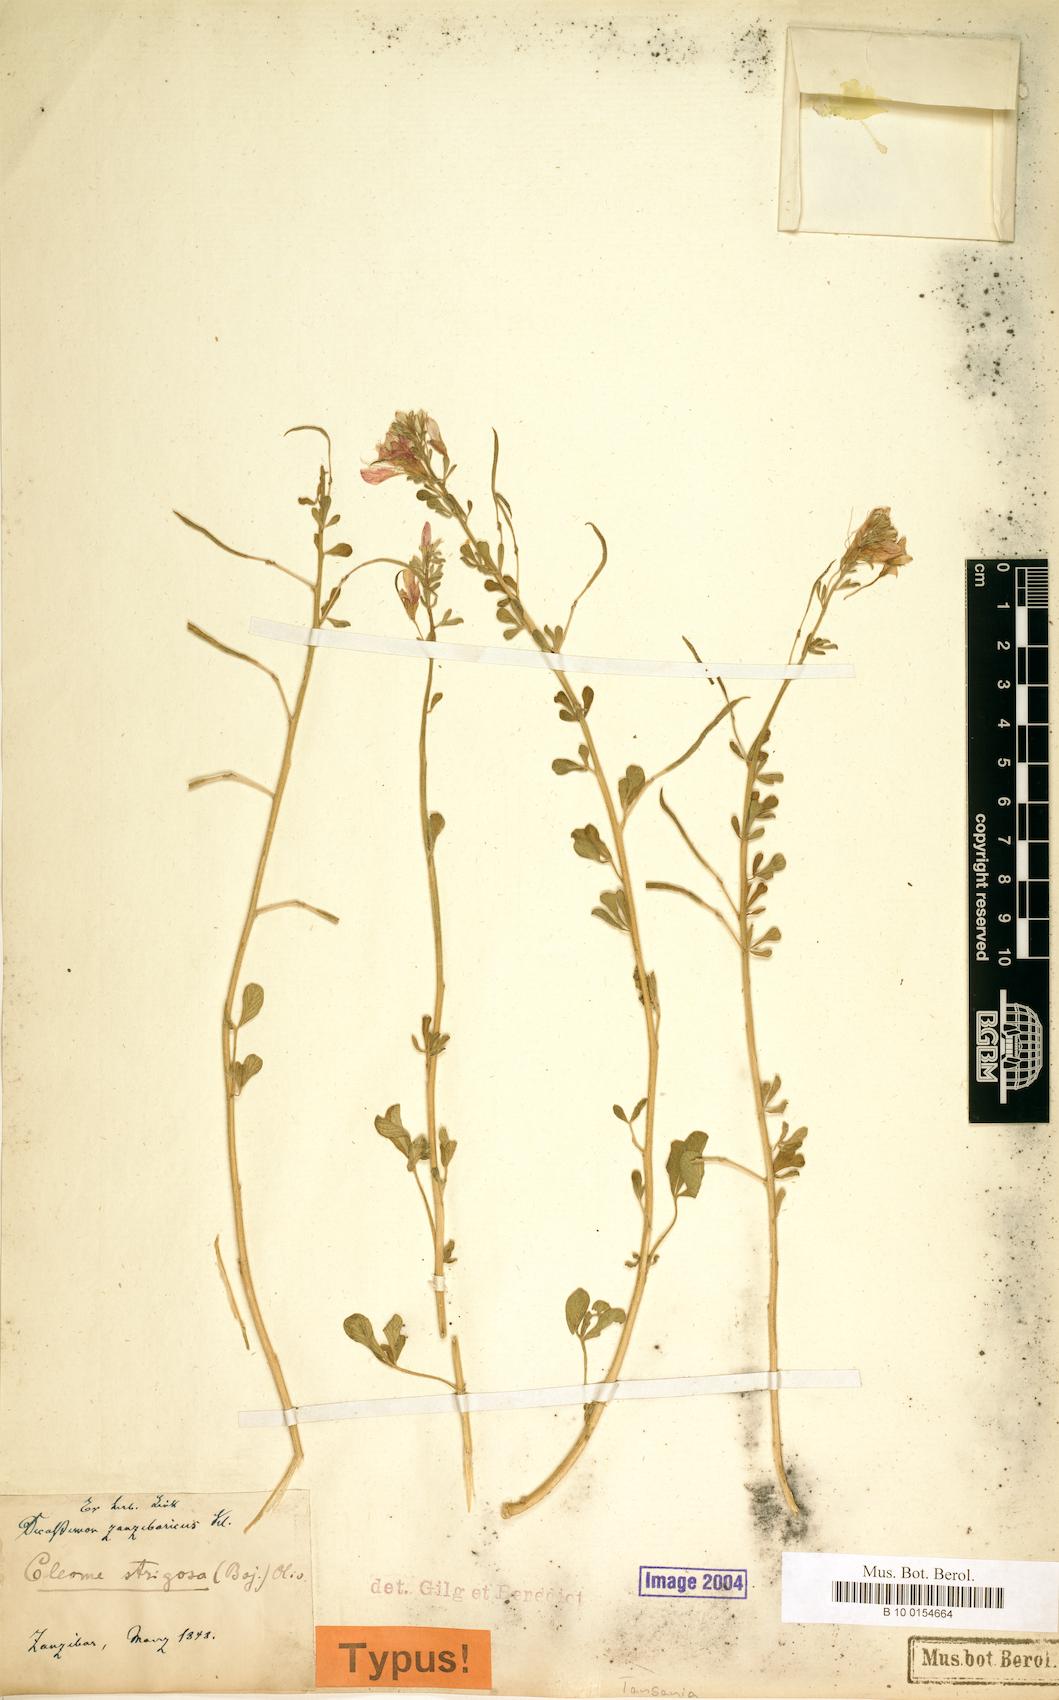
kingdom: Plantae
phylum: Tracheophyta
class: Magnoliopsida
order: Brassicales
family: Cleomaceae
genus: Sieruela
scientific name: Sieruela strigosa
